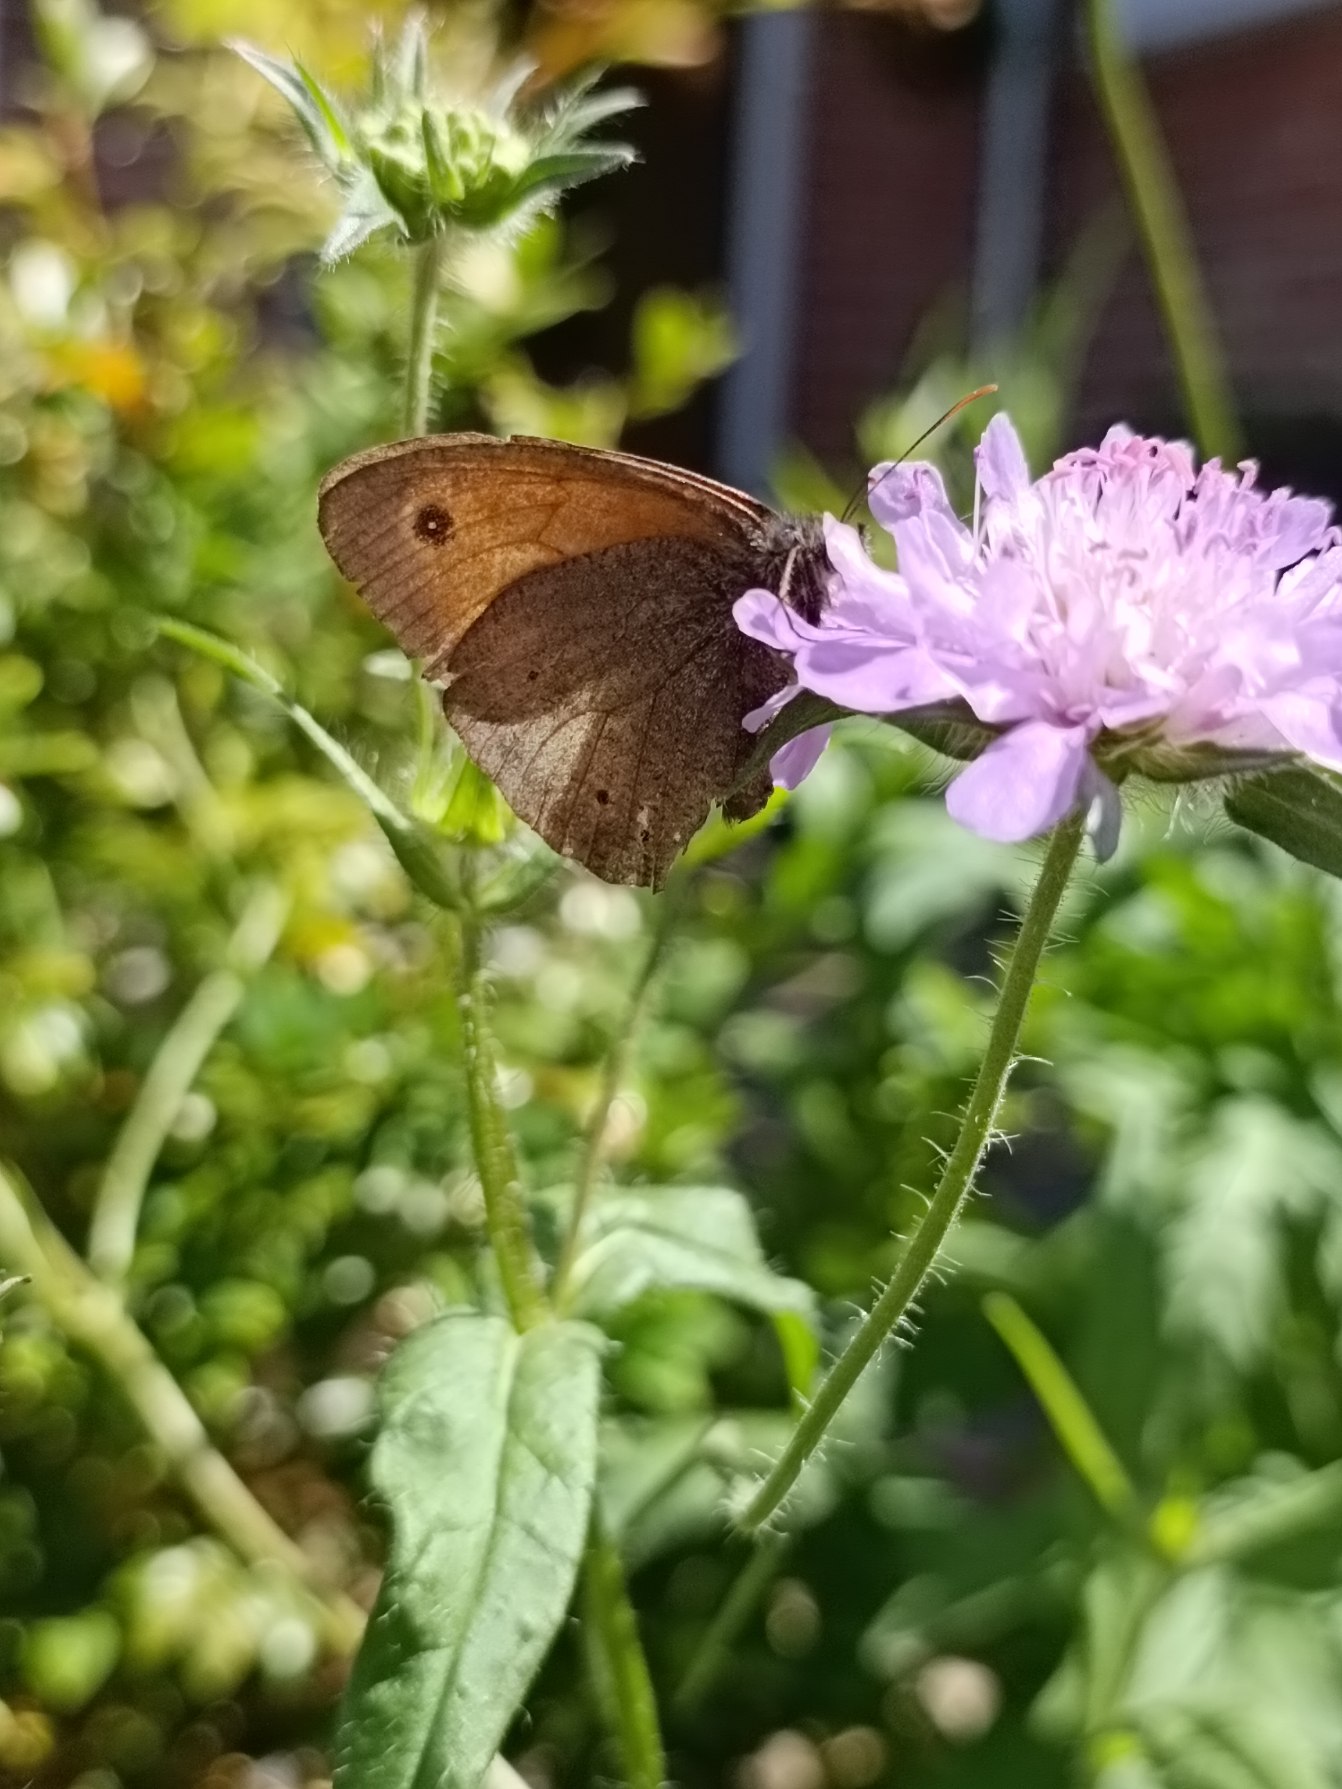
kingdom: Animalia
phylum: Arthropoda
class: Insecta
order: Lepidoptera
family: Nymphalidae
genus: Maniola
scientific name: Maniola jurtina
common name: Græsrandøje
